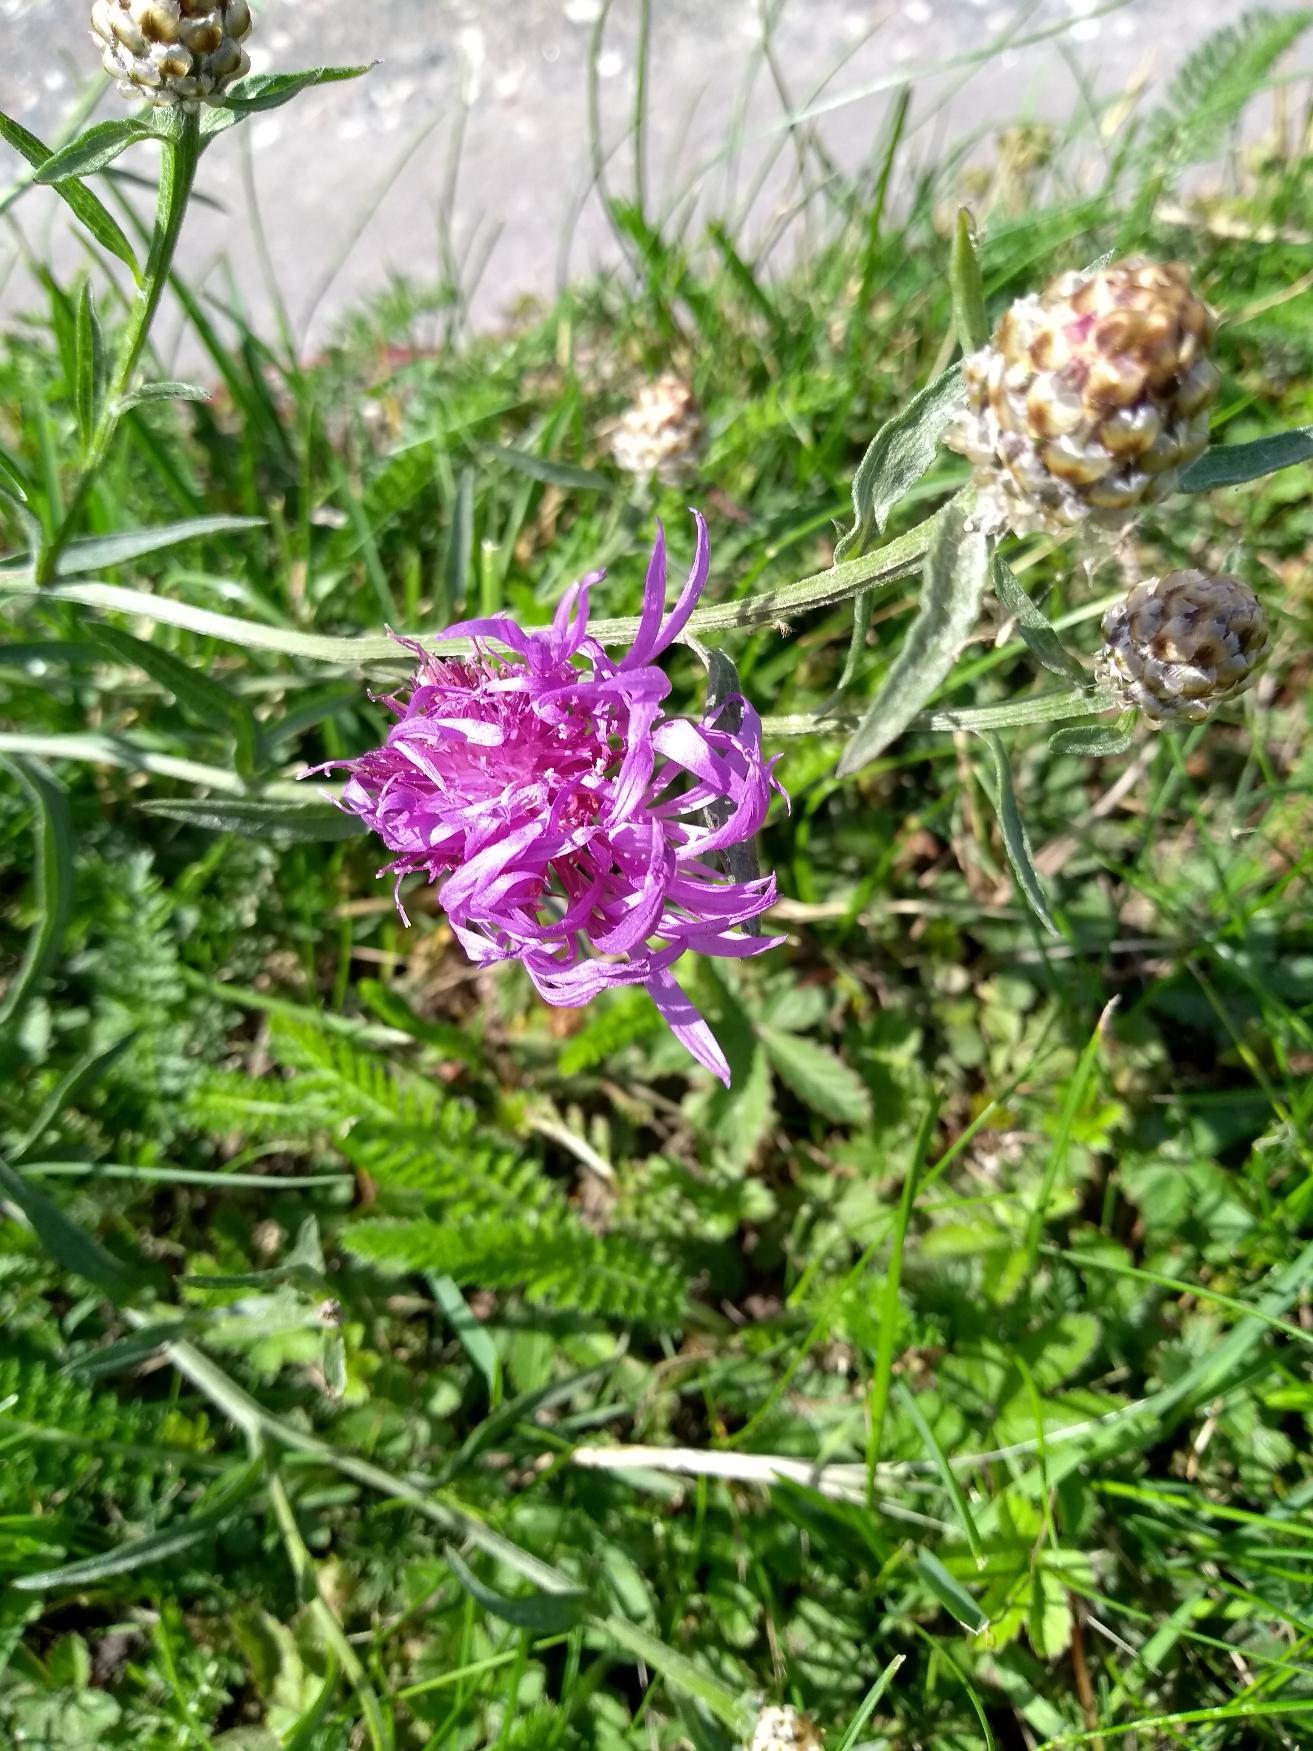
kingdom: Plantae
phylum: Tracheophyta
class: Magnoliopsida
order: Asterales
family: Asteraceae
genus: Centaurea
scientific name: Centaurea jacea
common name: Almindelig knopurt
